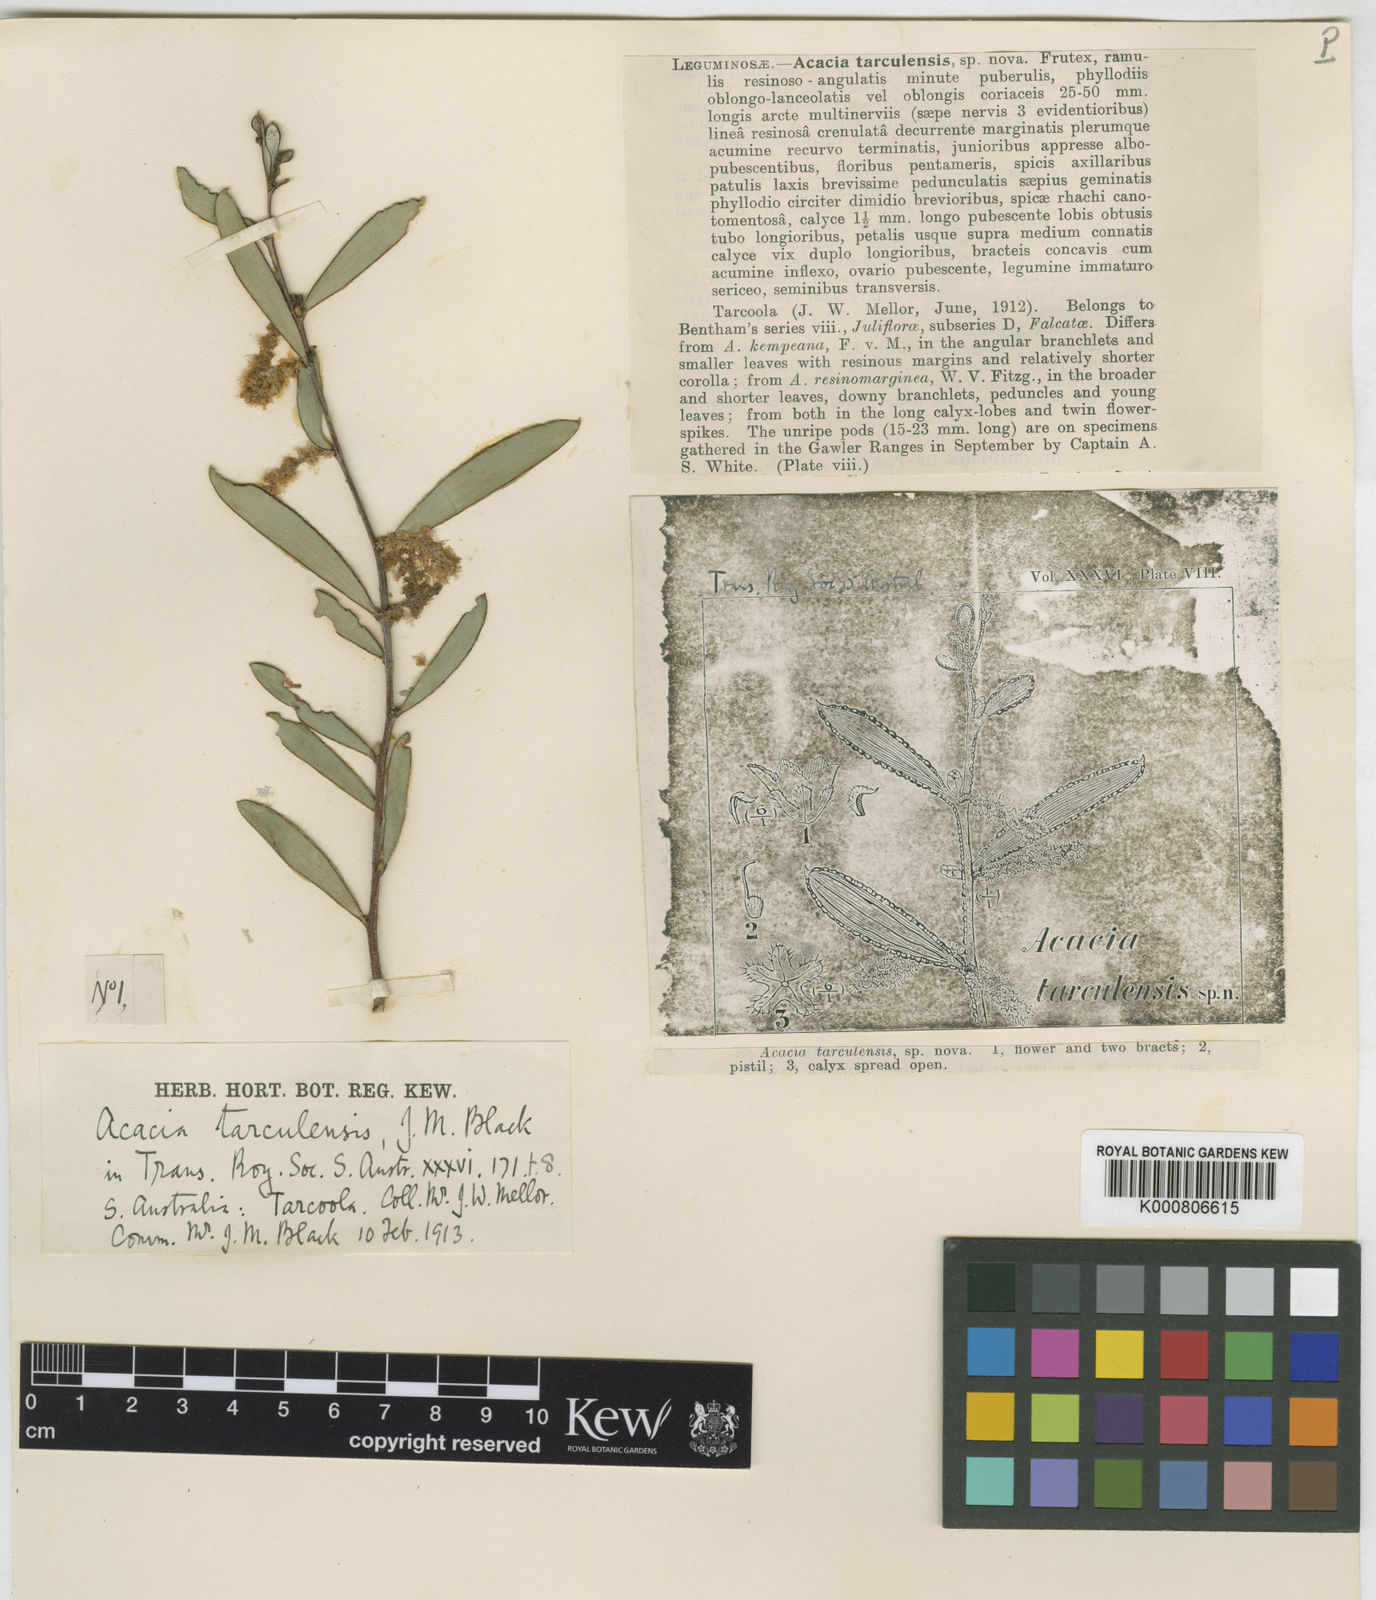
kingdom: Plantae
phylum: Tracheophyta
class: Magnoliopsida
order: Fabales
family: Fabaceae
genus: Acacia
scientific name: Acacia tarculensis
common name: Steelbush
